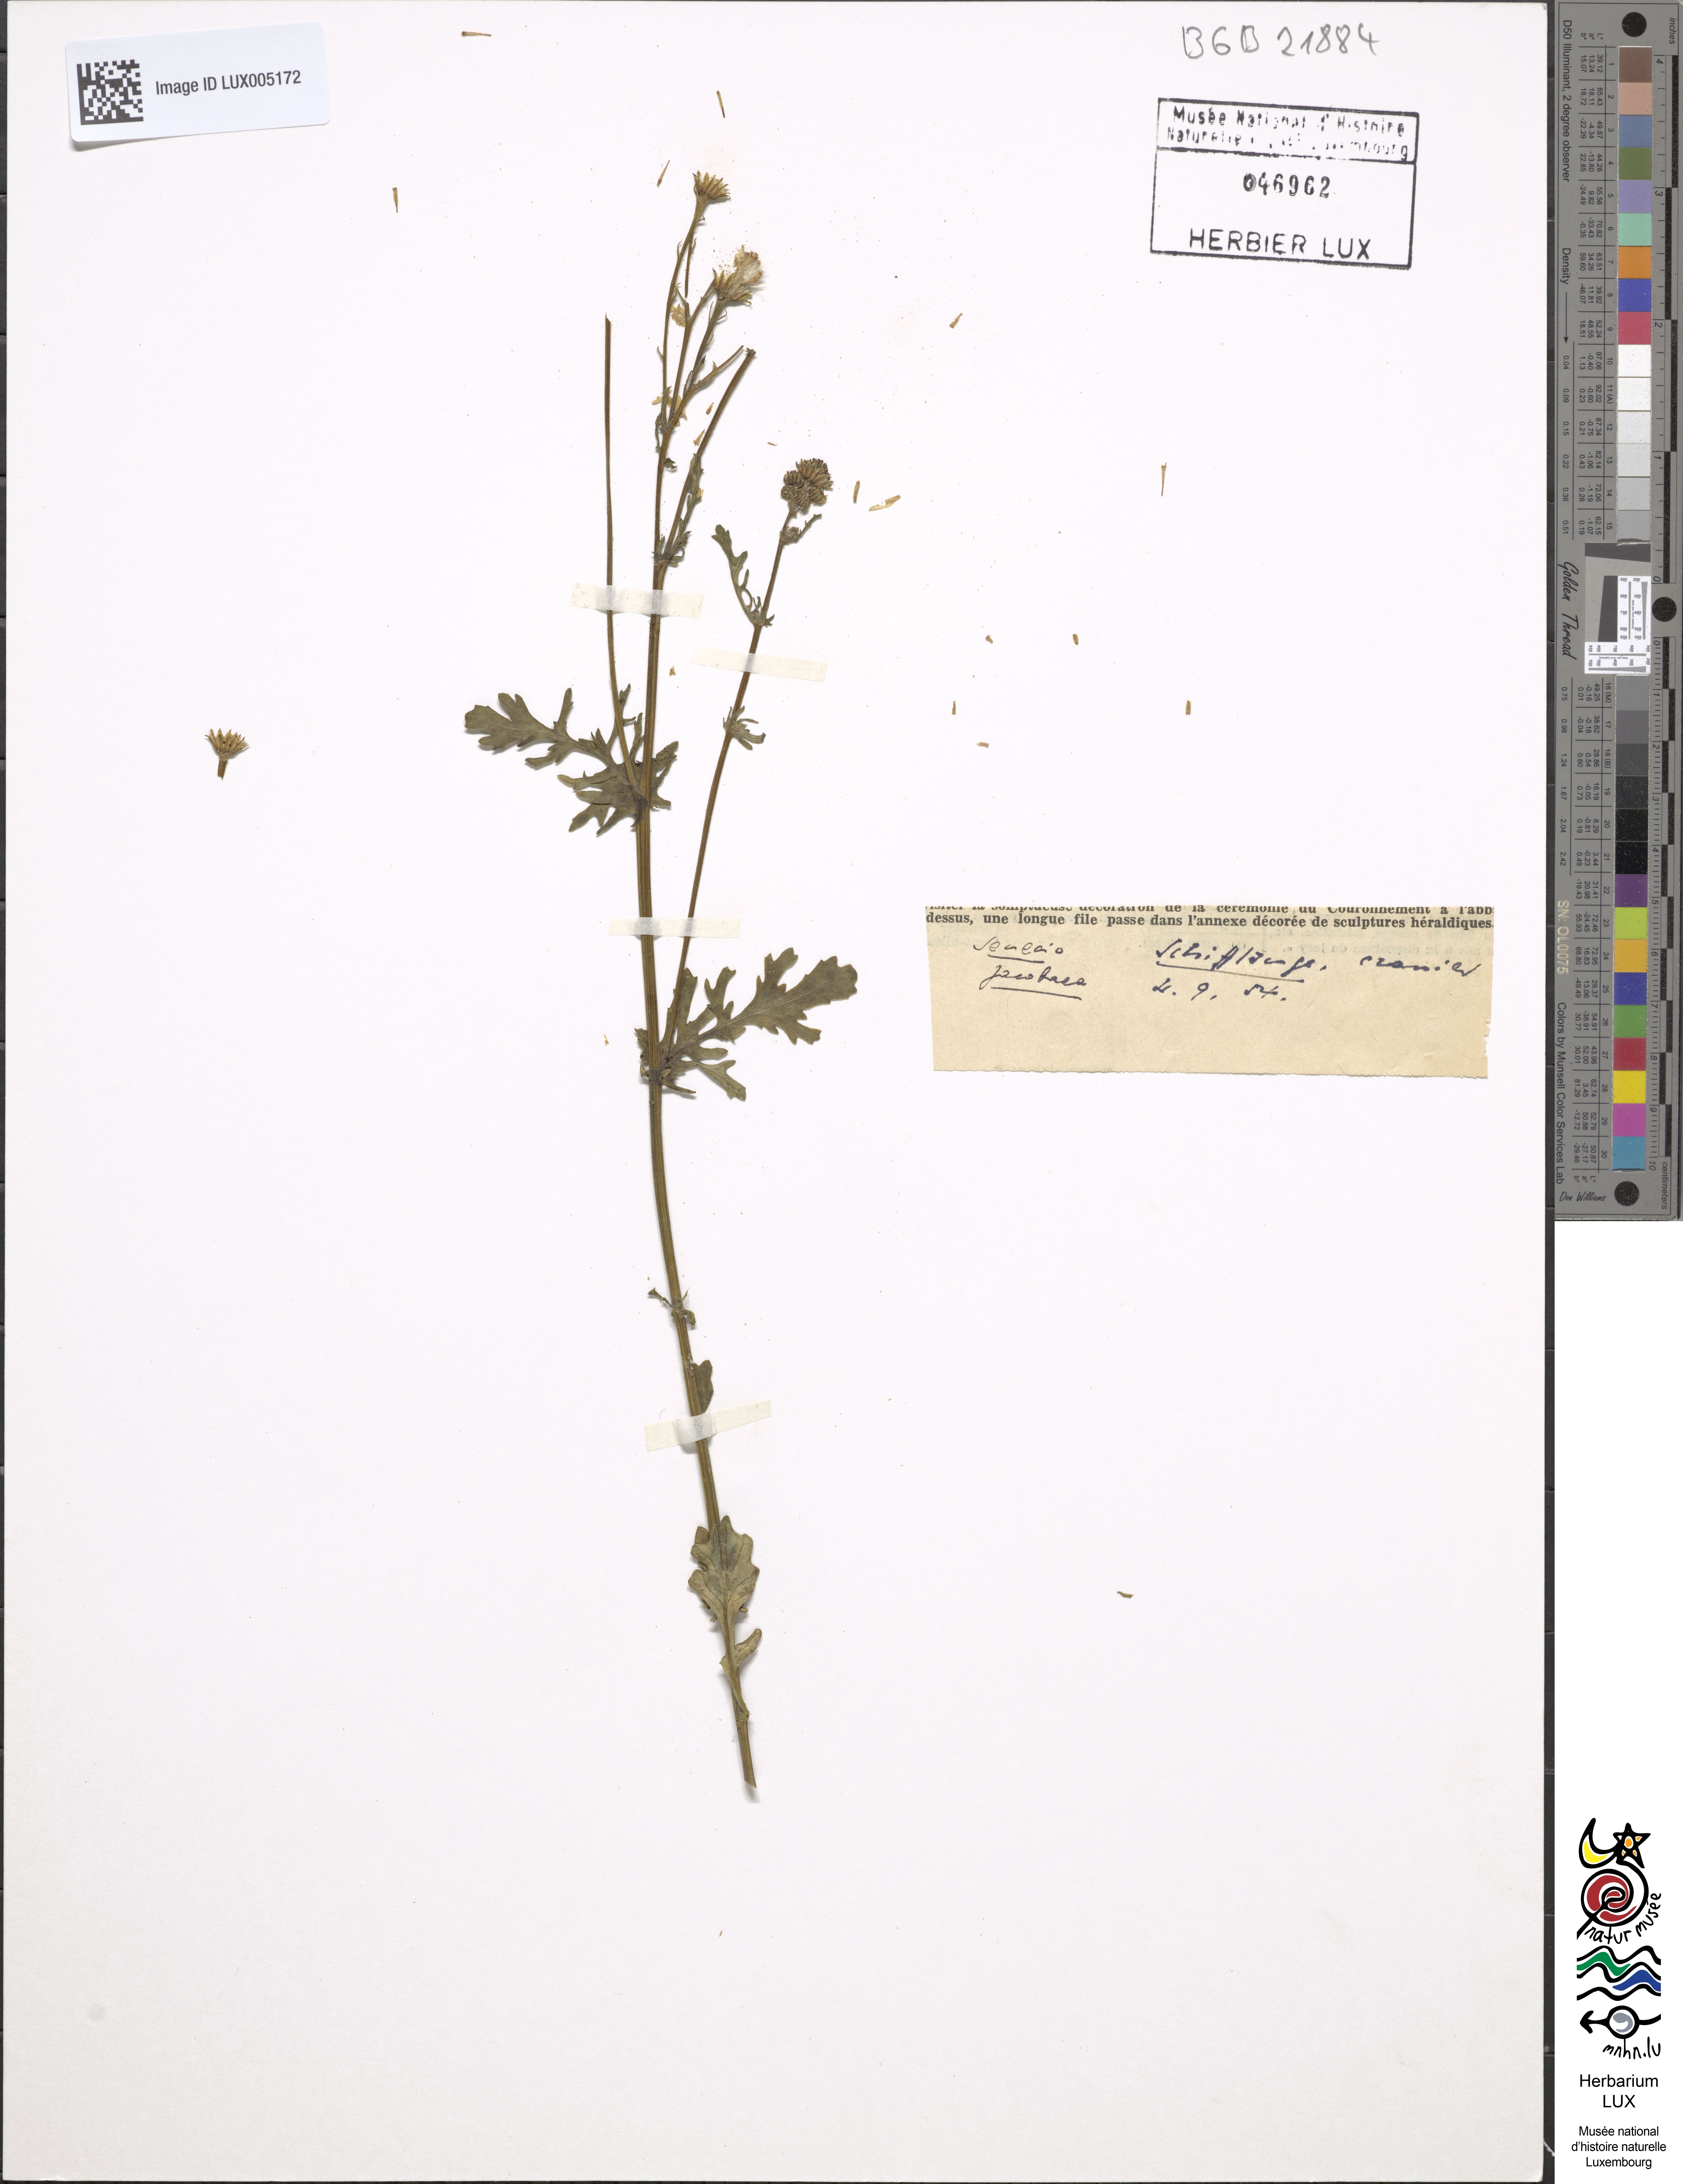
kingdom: Plantae
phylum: Tracheophyta
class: Magnoliopsida
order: Asterales
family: Asteraceae
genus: Jacobaea
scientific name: Jacobaea vulgaris
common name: Stinking willie
